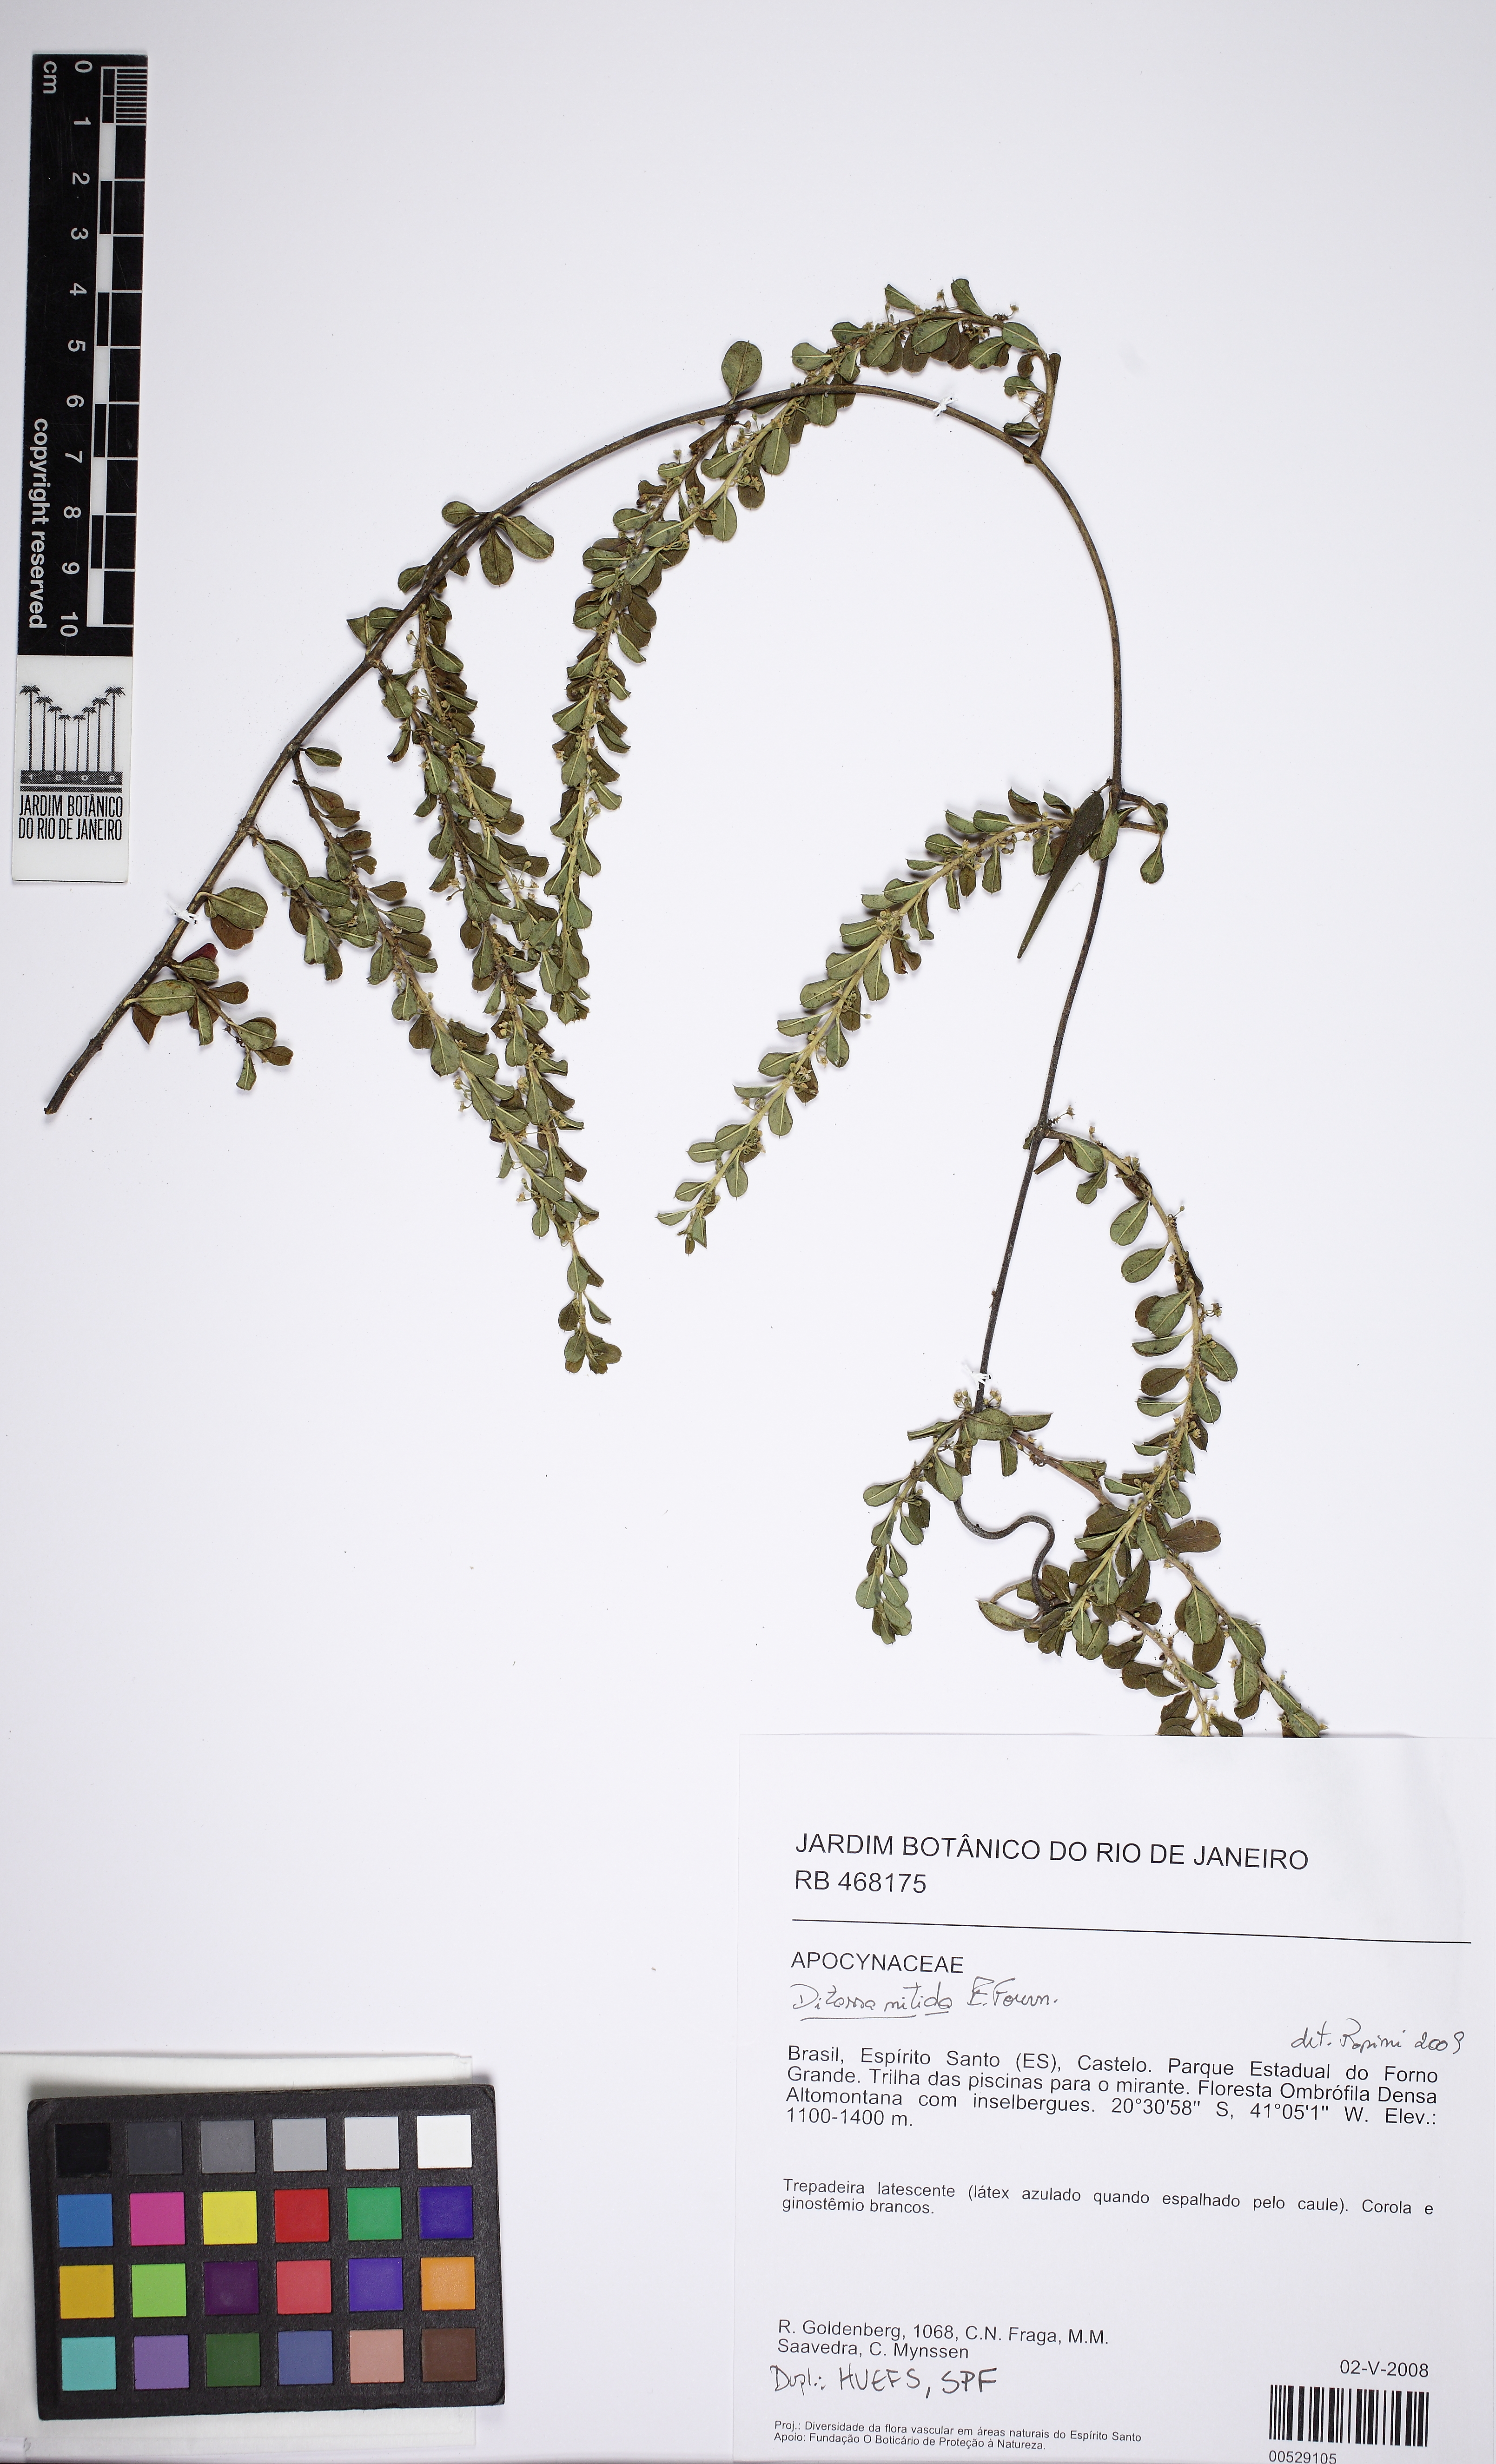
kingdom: Plantae
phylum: Tracheophyta
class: Magnoliopsida
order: Gentianales
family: Apocynaceae
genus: Ditassa
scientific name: Ditassa nitida
